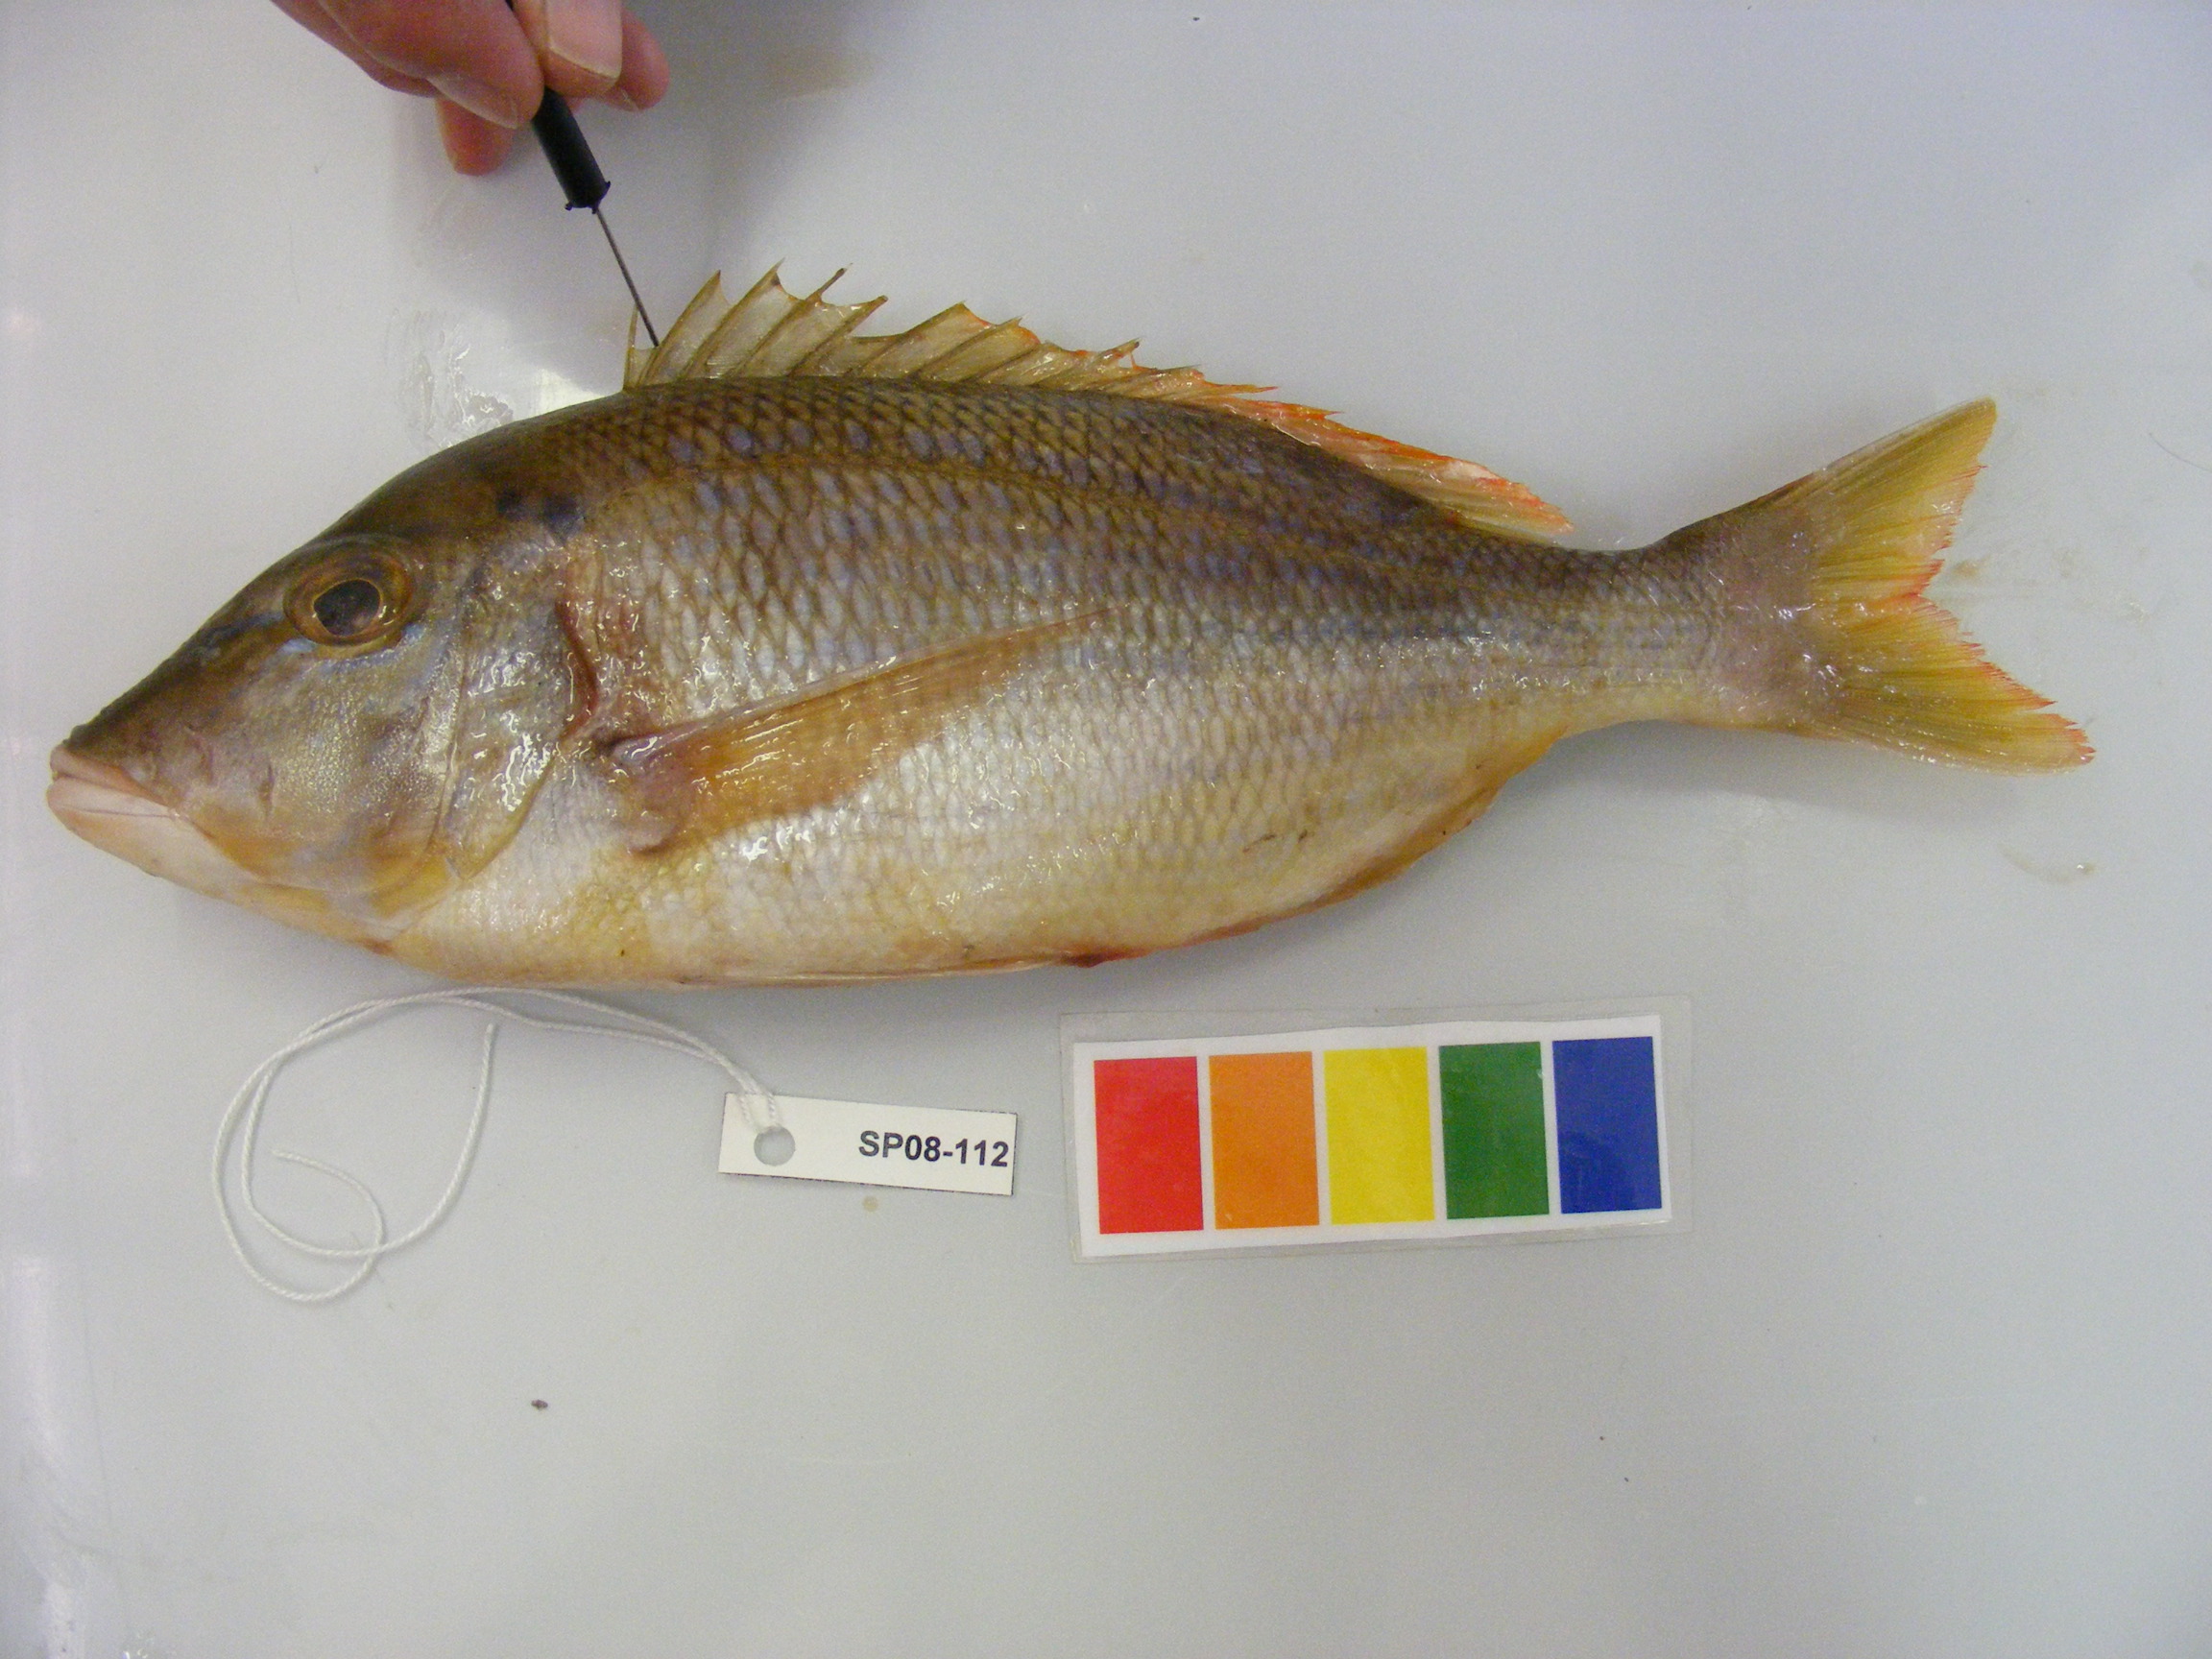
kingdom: Animalia
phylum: Chordata
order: Perciformes
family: Lethrinidae
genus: Lethrinus
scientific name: Lethrinus nebulosus
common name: Spangled emperor
